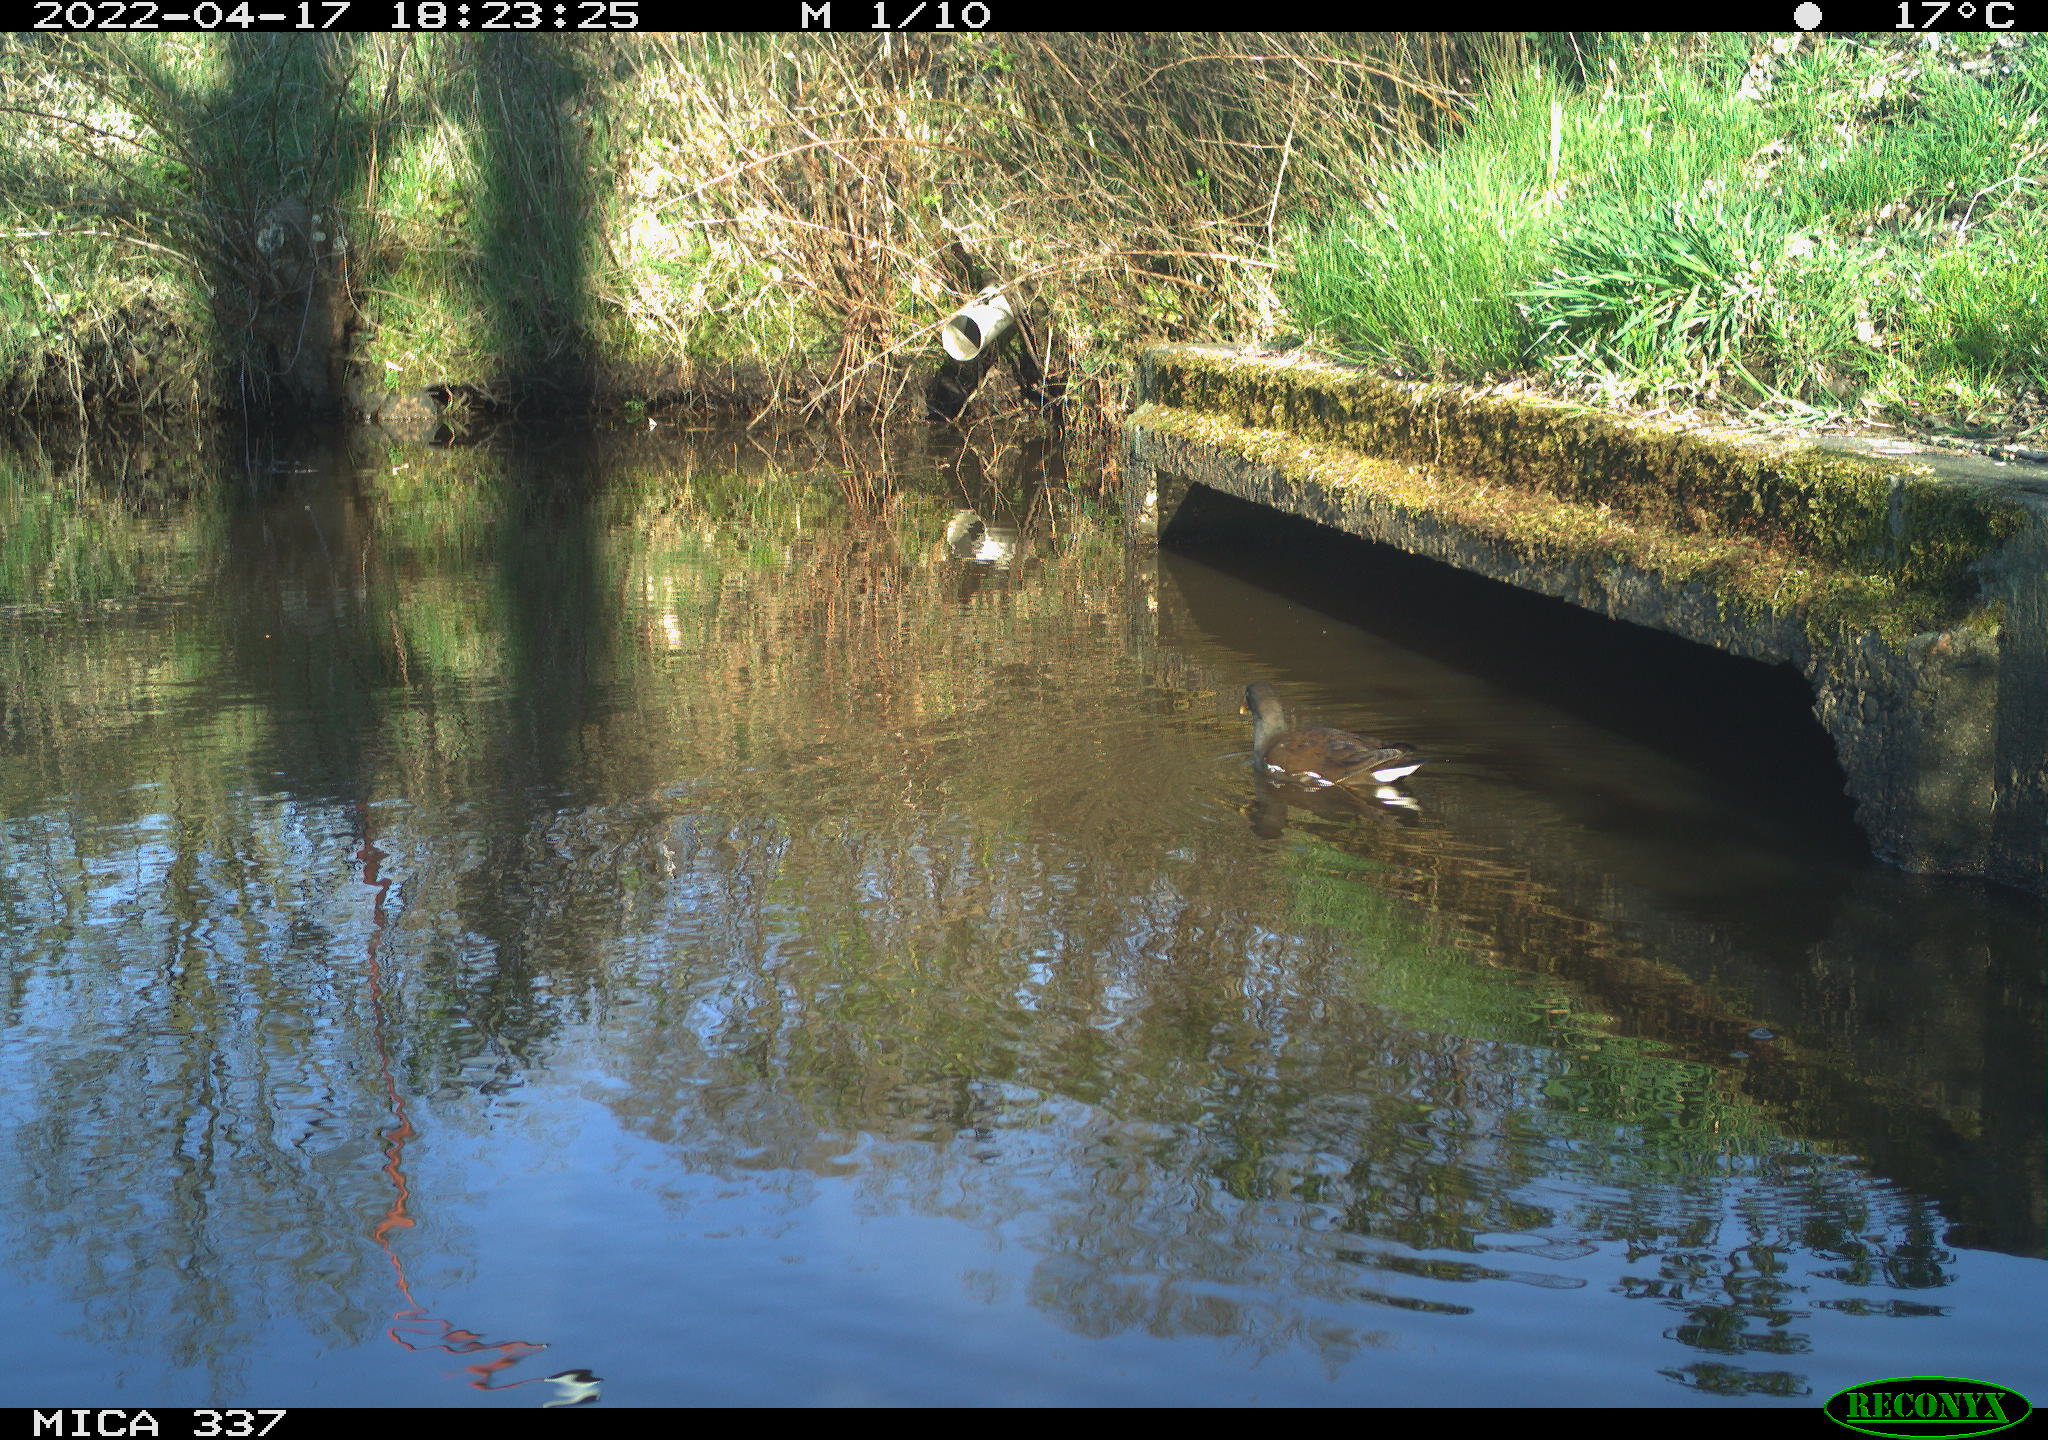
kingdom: Animalia
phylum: Chordata
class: Aves
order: Gruiformes
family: Rallidae
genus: Gallinula
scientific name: Gallinula chloropus
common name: Common moorhen
